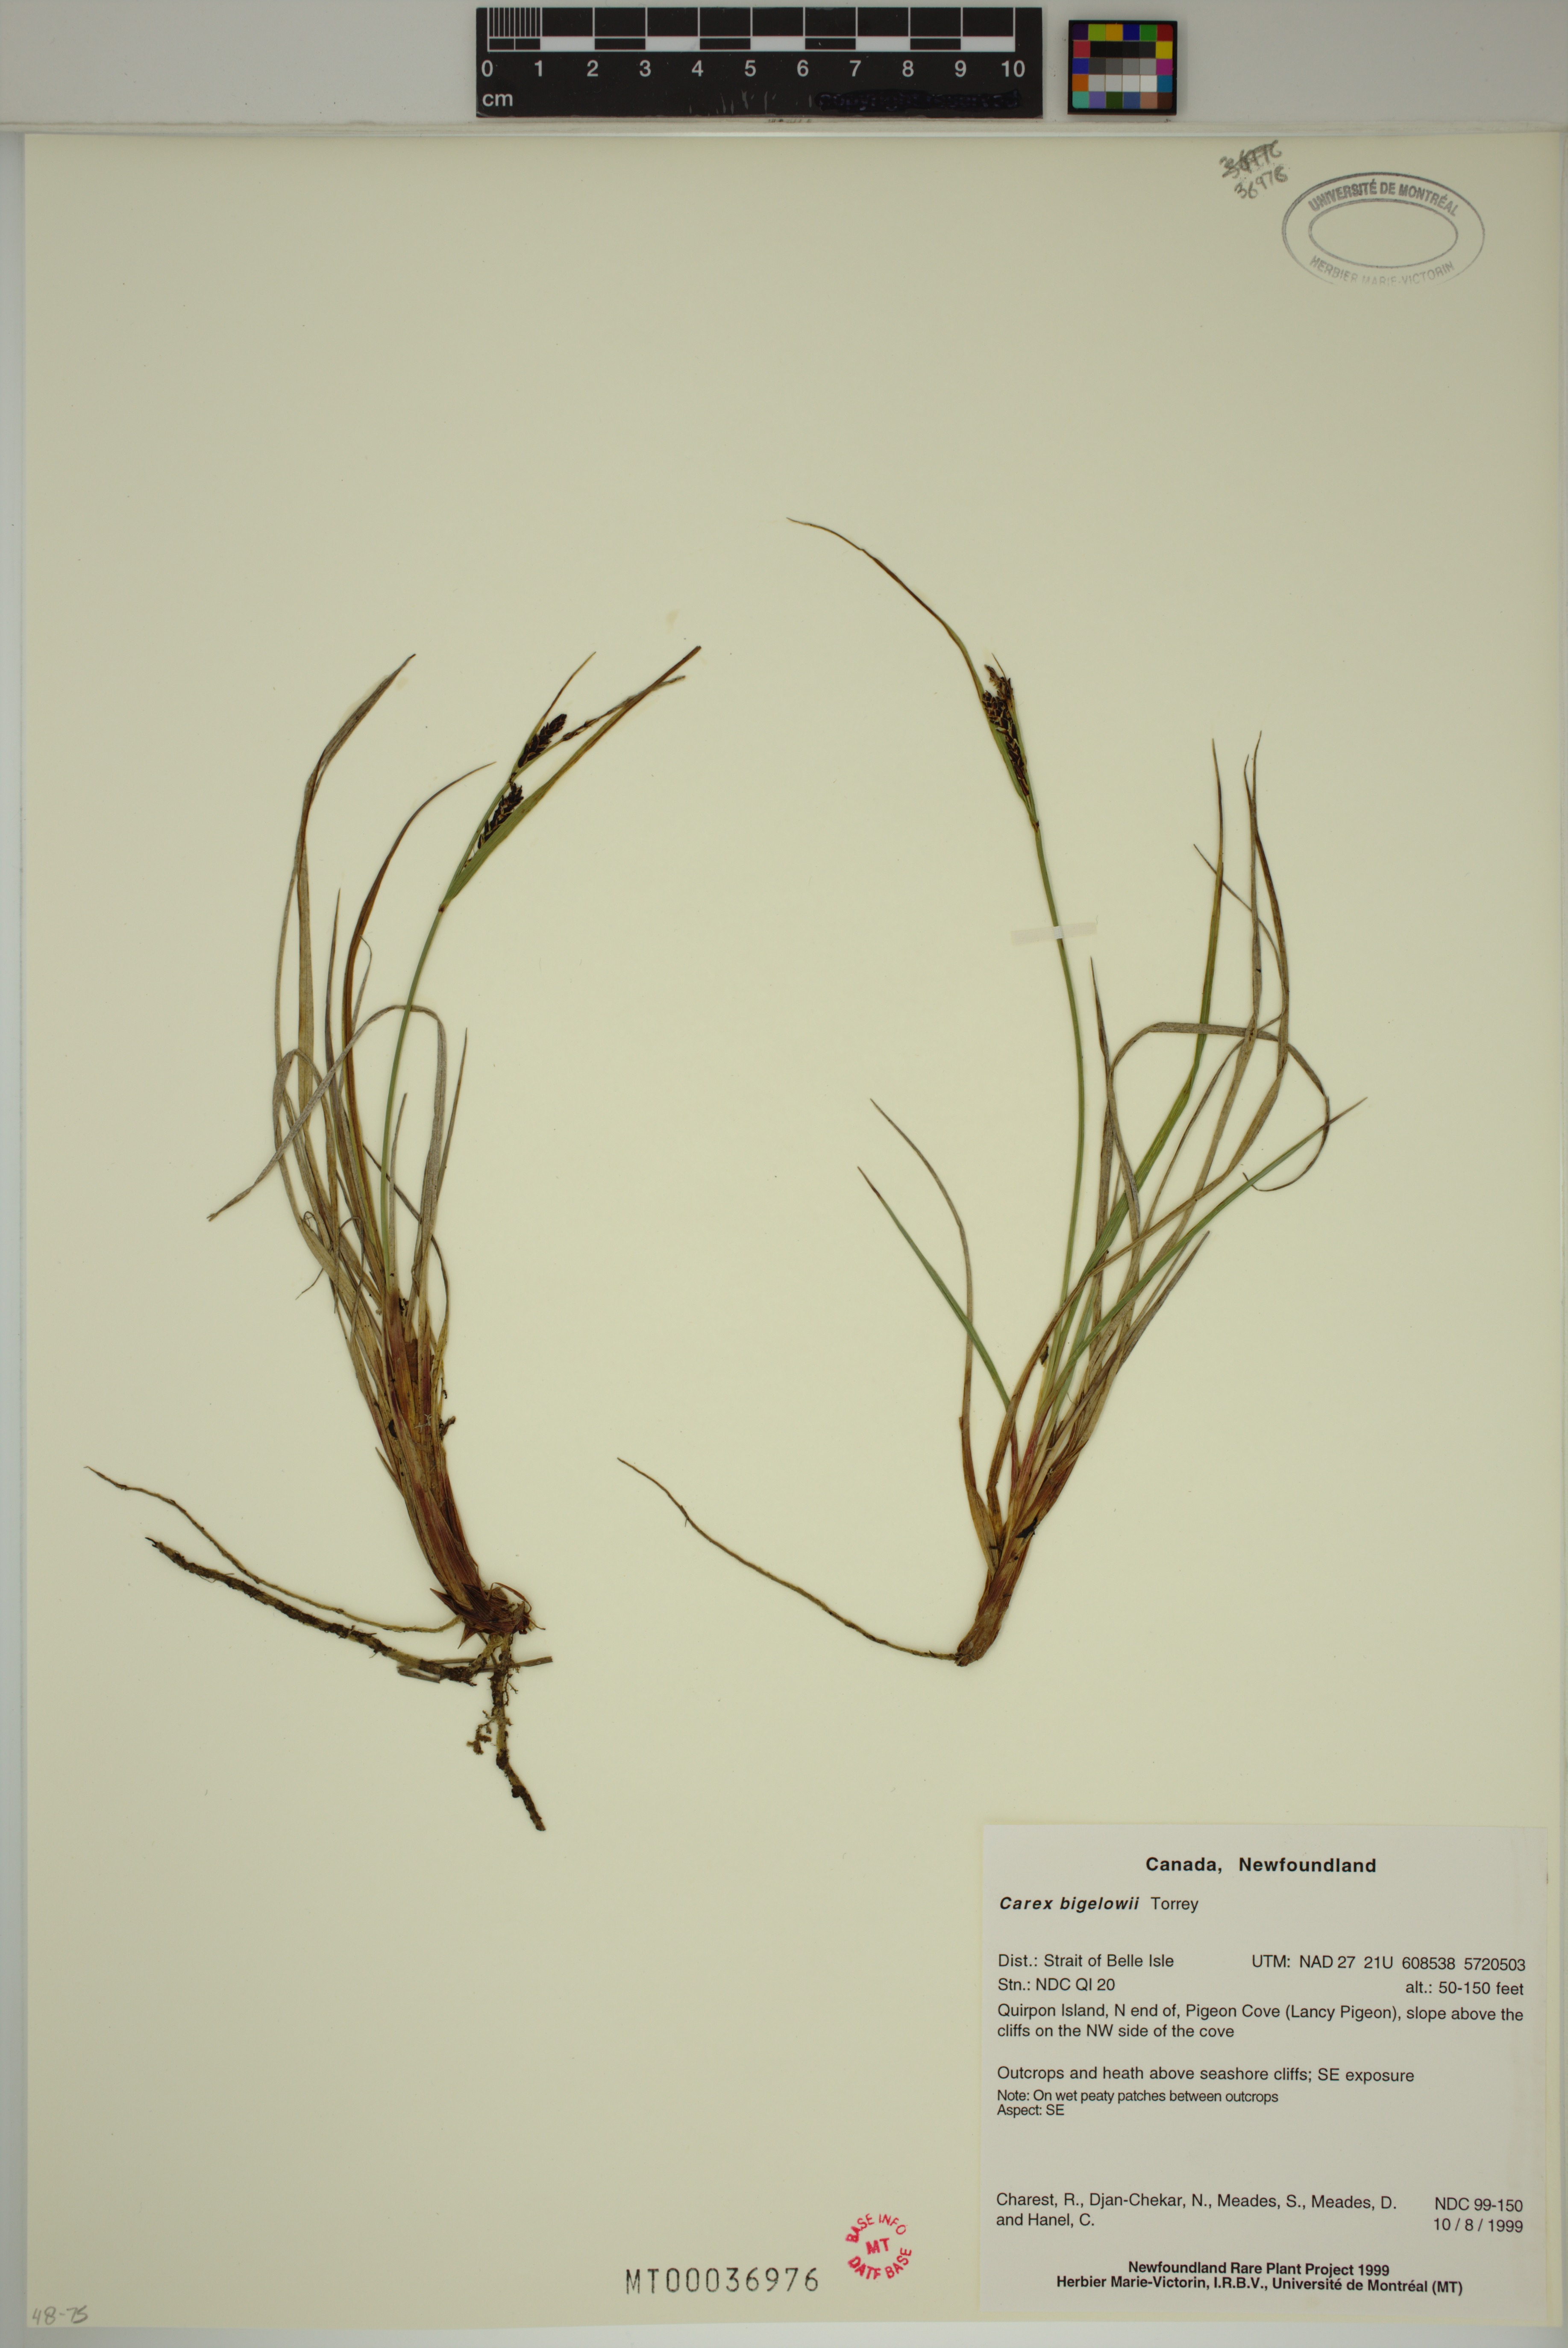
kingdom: Plantae
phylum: Tracheophyta
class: Liliopsida
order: Poales
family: Cyperaceae
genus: Carex
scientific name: Carex bigelowii
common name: Stiff sedge
